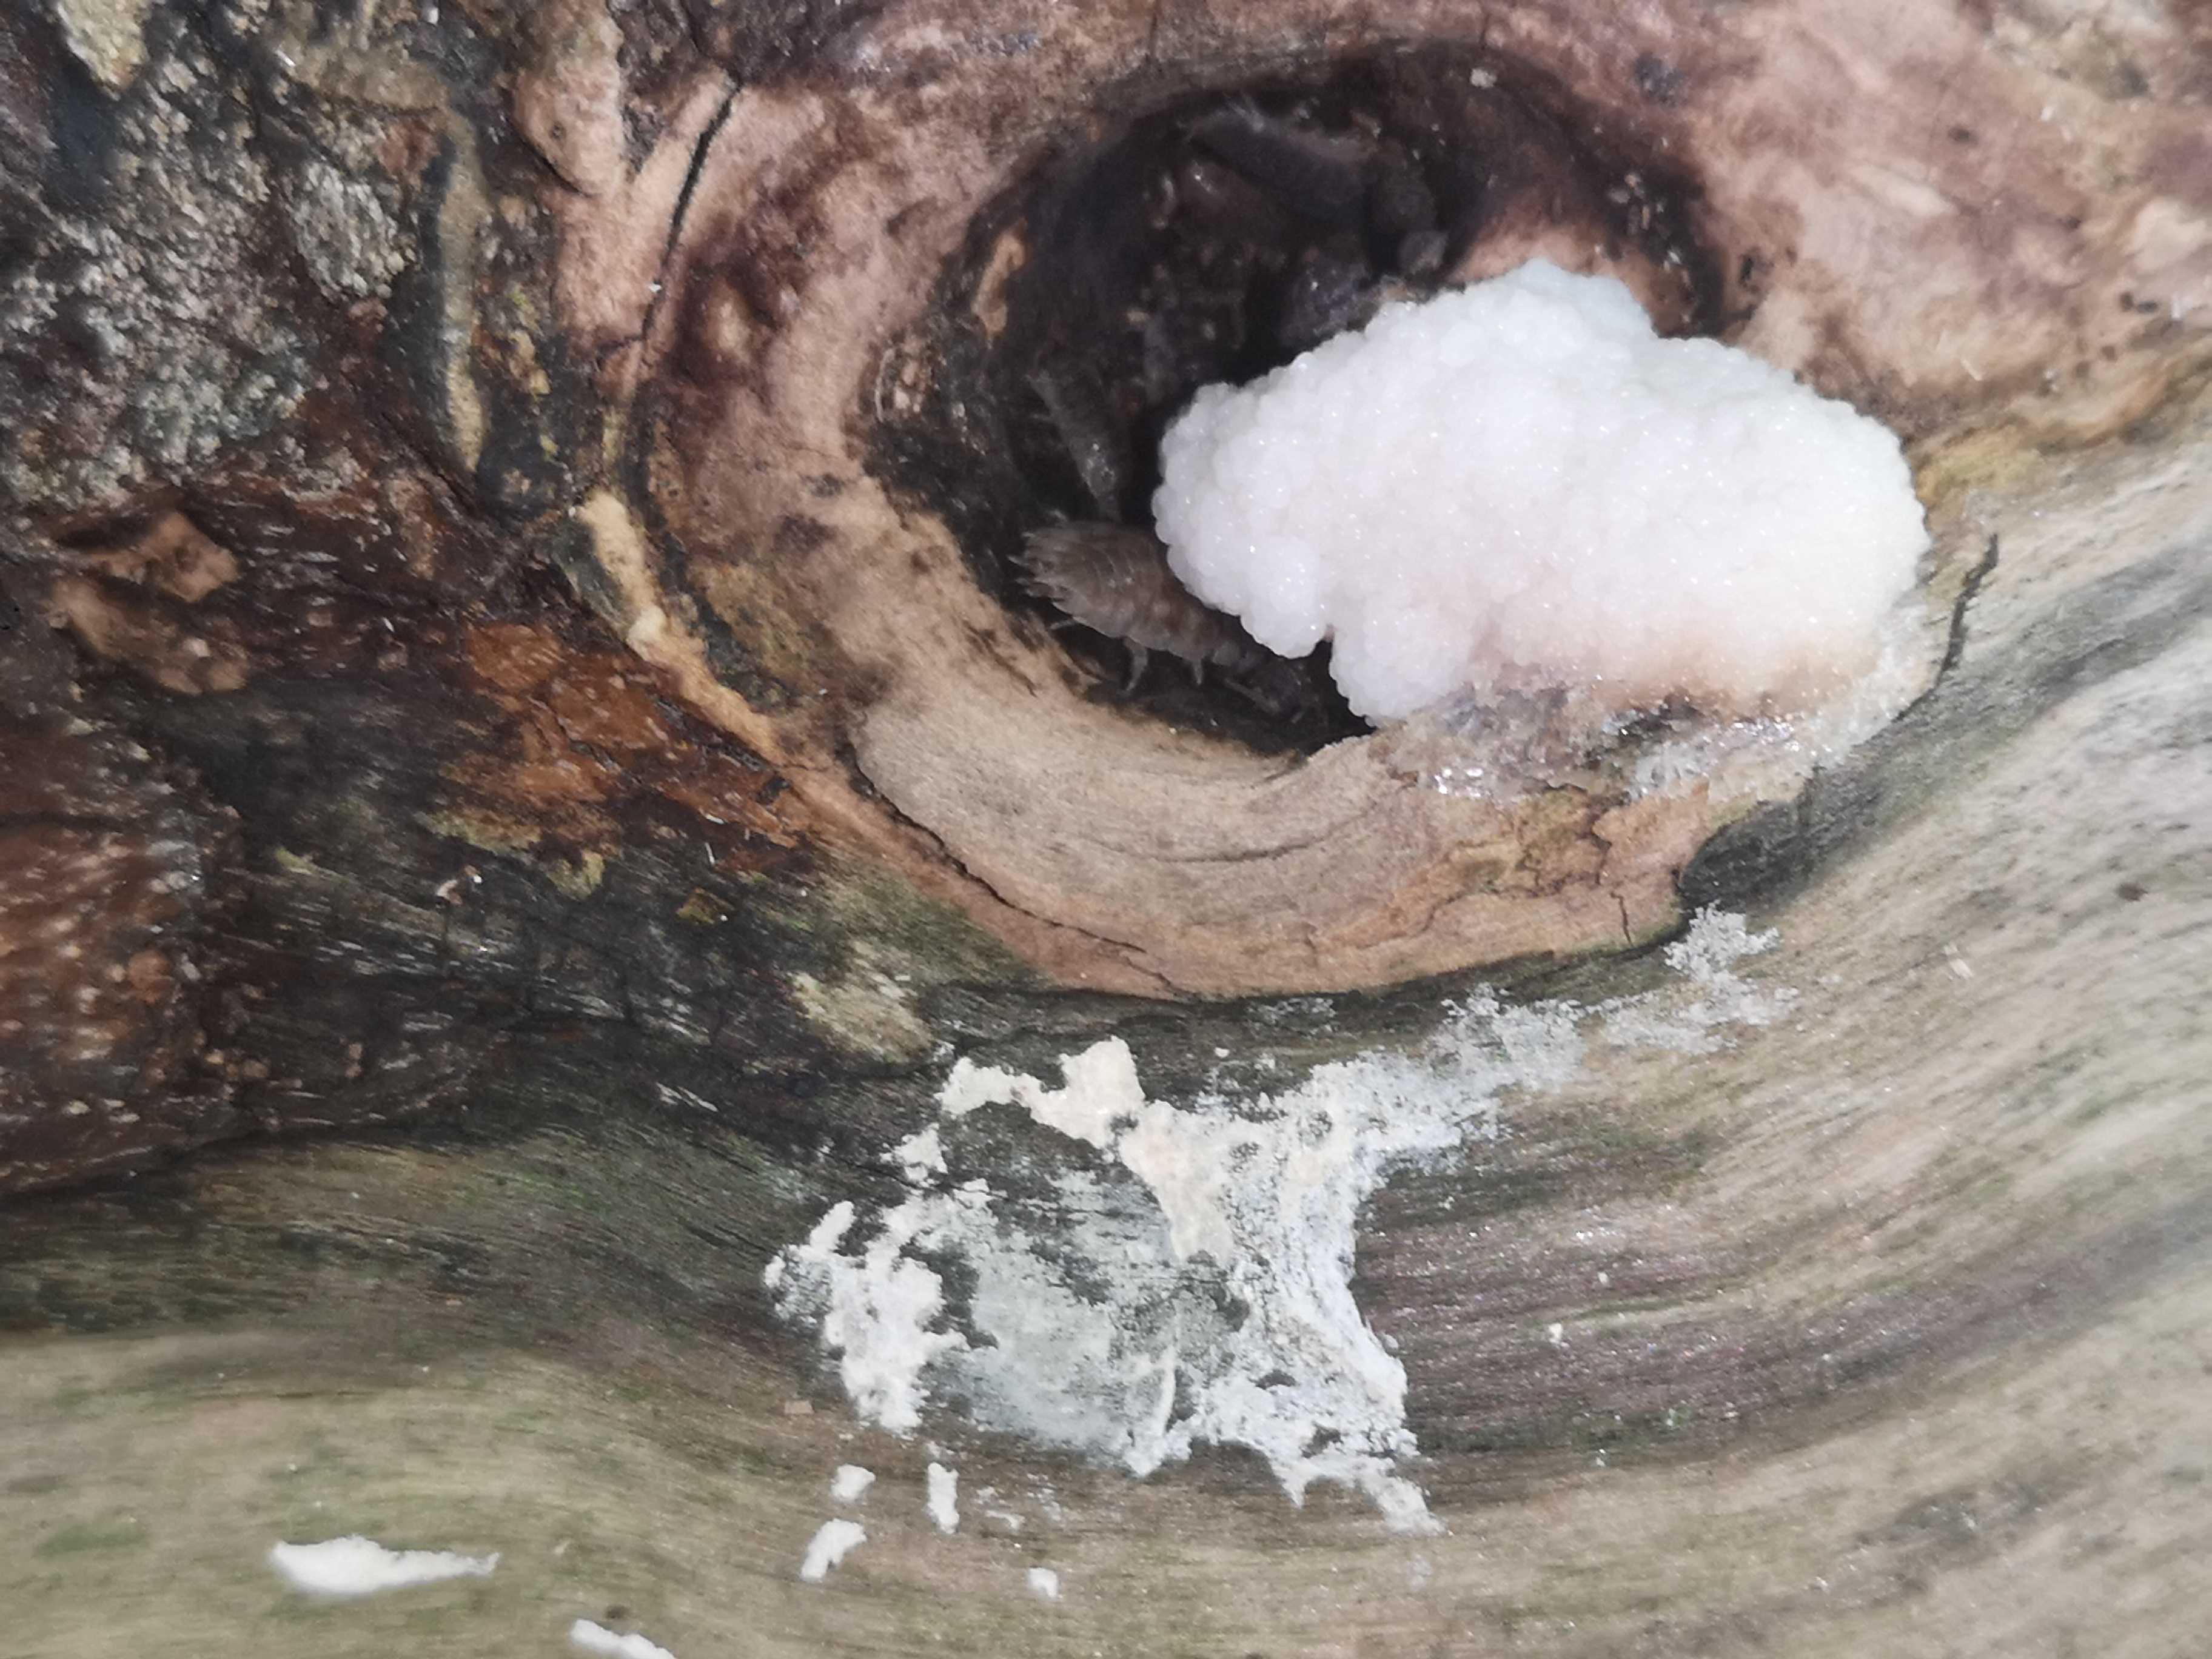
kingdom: Protozoa
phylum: Mycetozoa
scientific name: Mycetozoa
